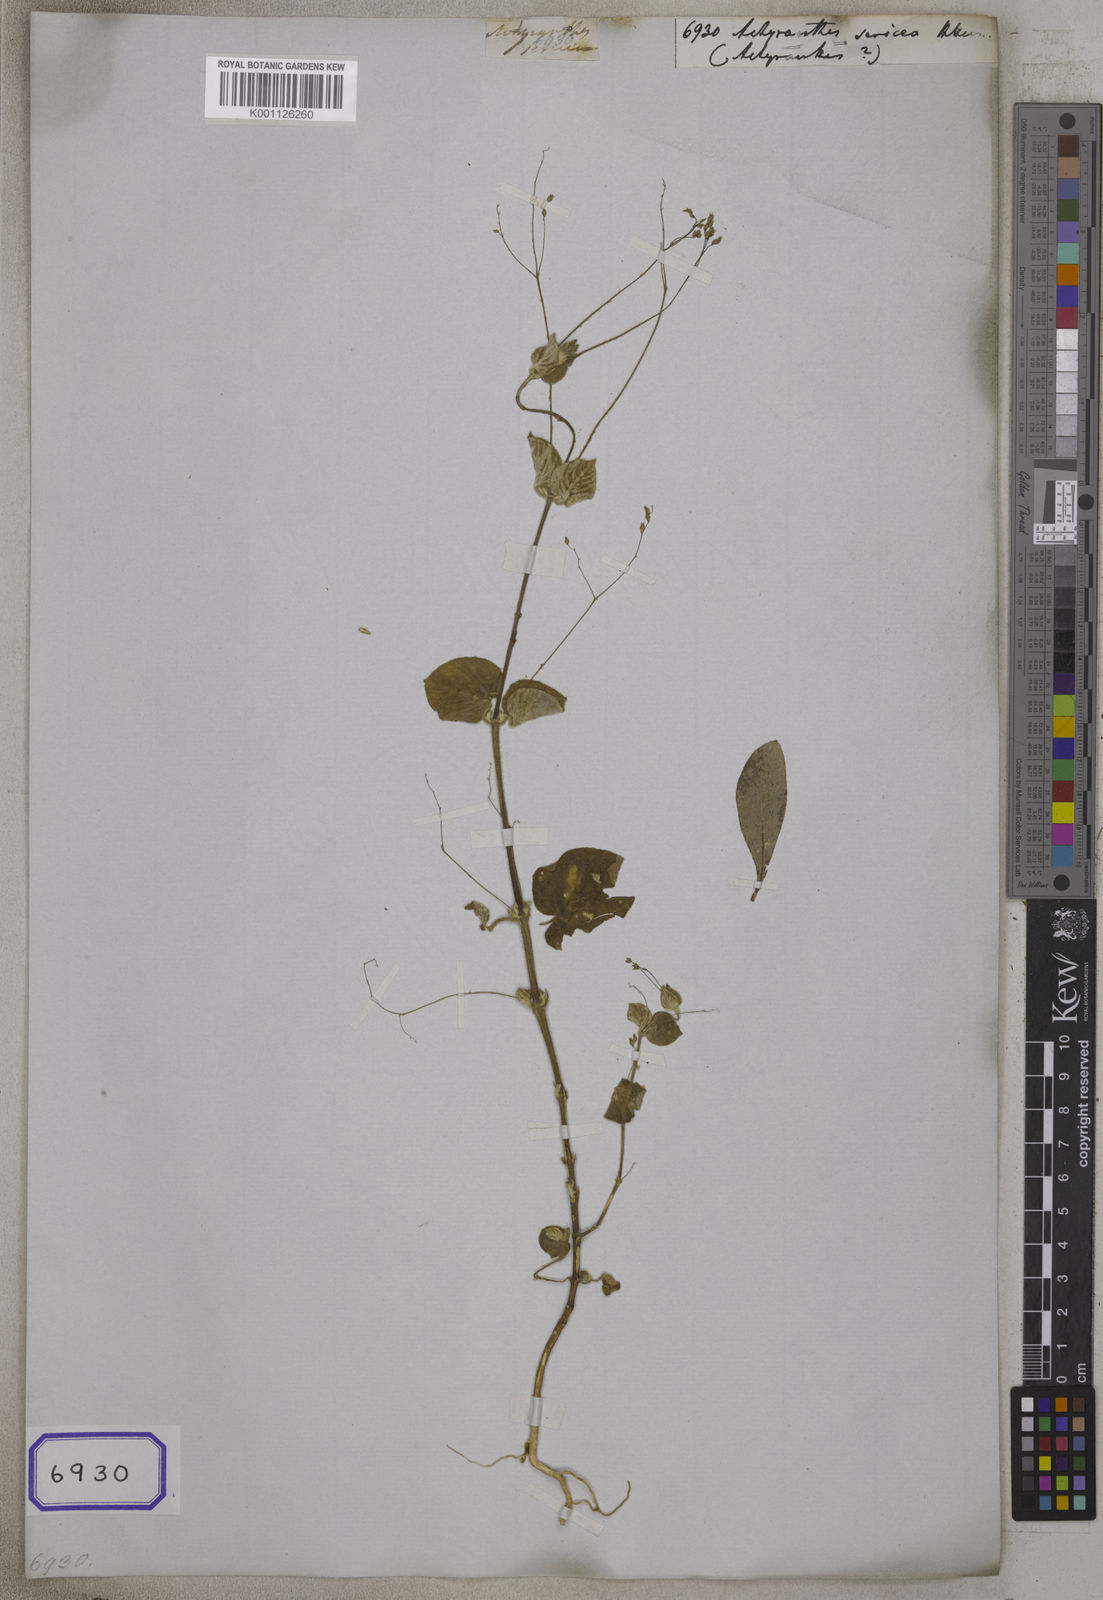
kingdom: Plantae
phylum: Tracheophyta
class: Magnoliopsida
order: Caryophyllales
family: Amaranthaceae
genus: Achyranthes
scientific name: Achyranthes
